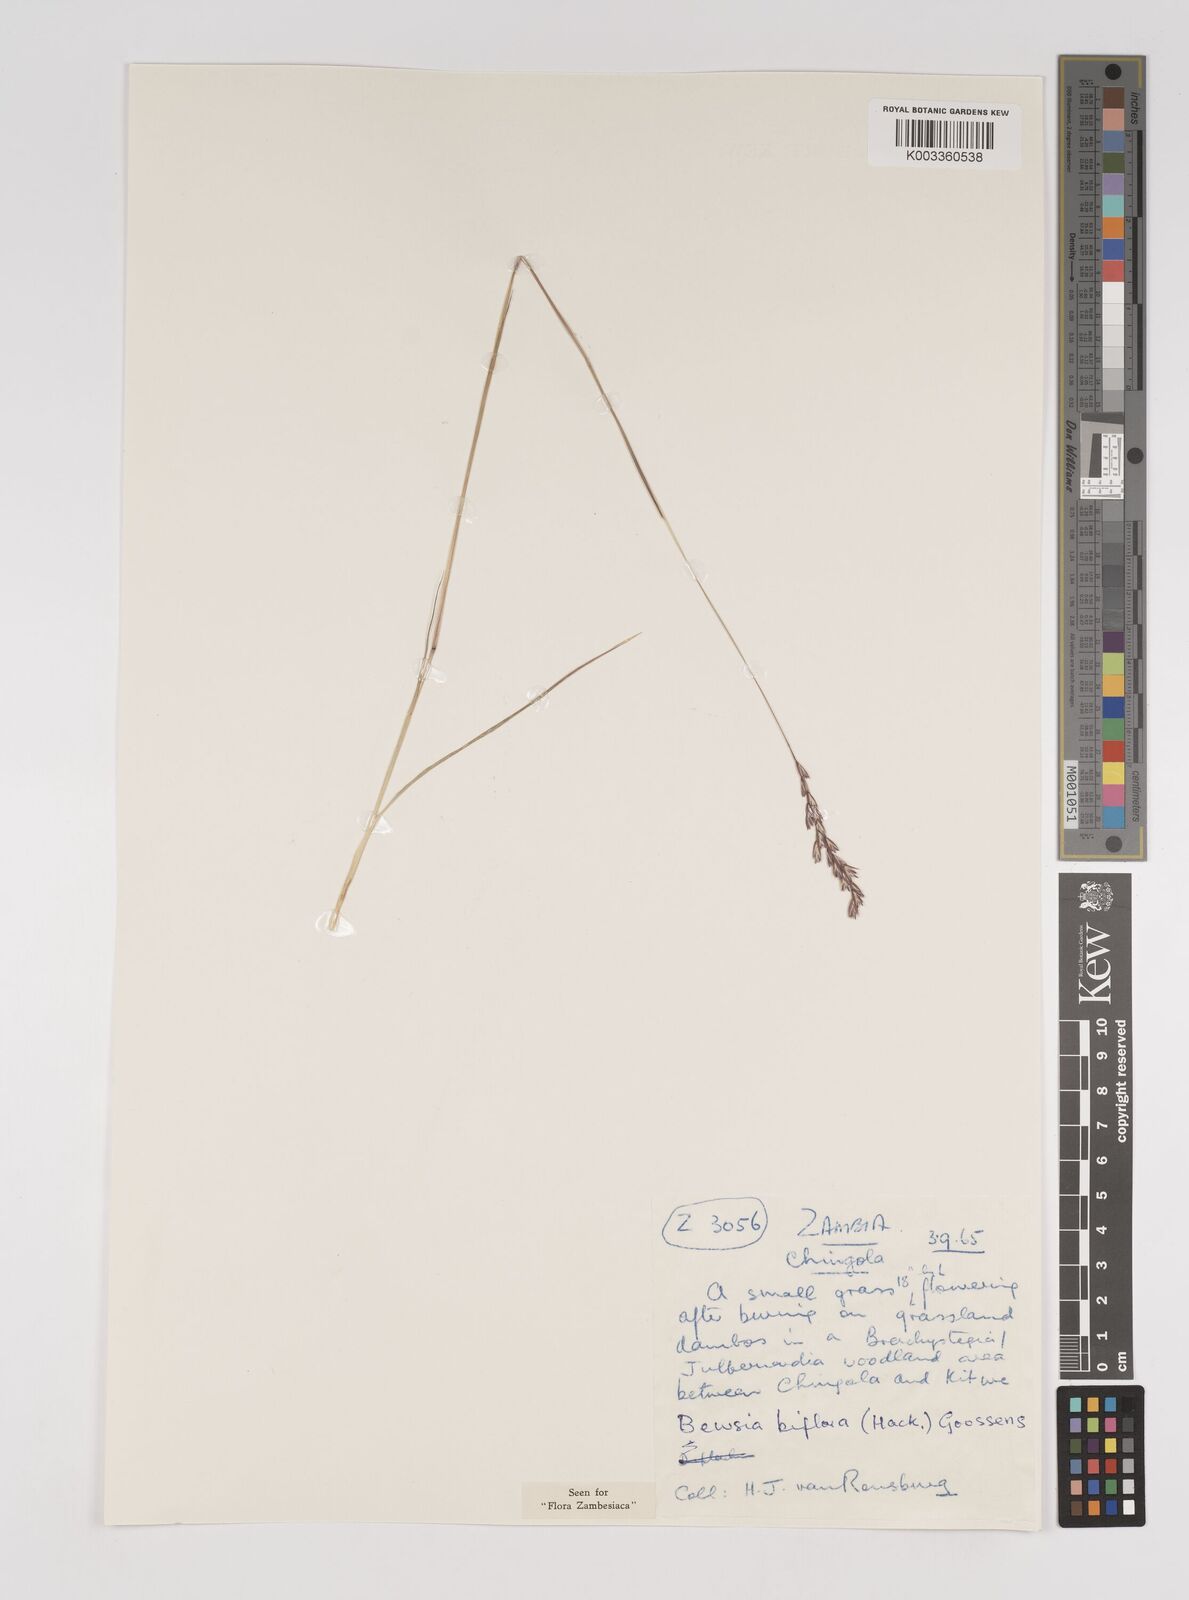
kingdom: Plantae
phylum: Tracheophyta
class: Liliopsida
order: Poales
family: Poaceae
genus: Bewsia
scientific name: Bewsia biflora
